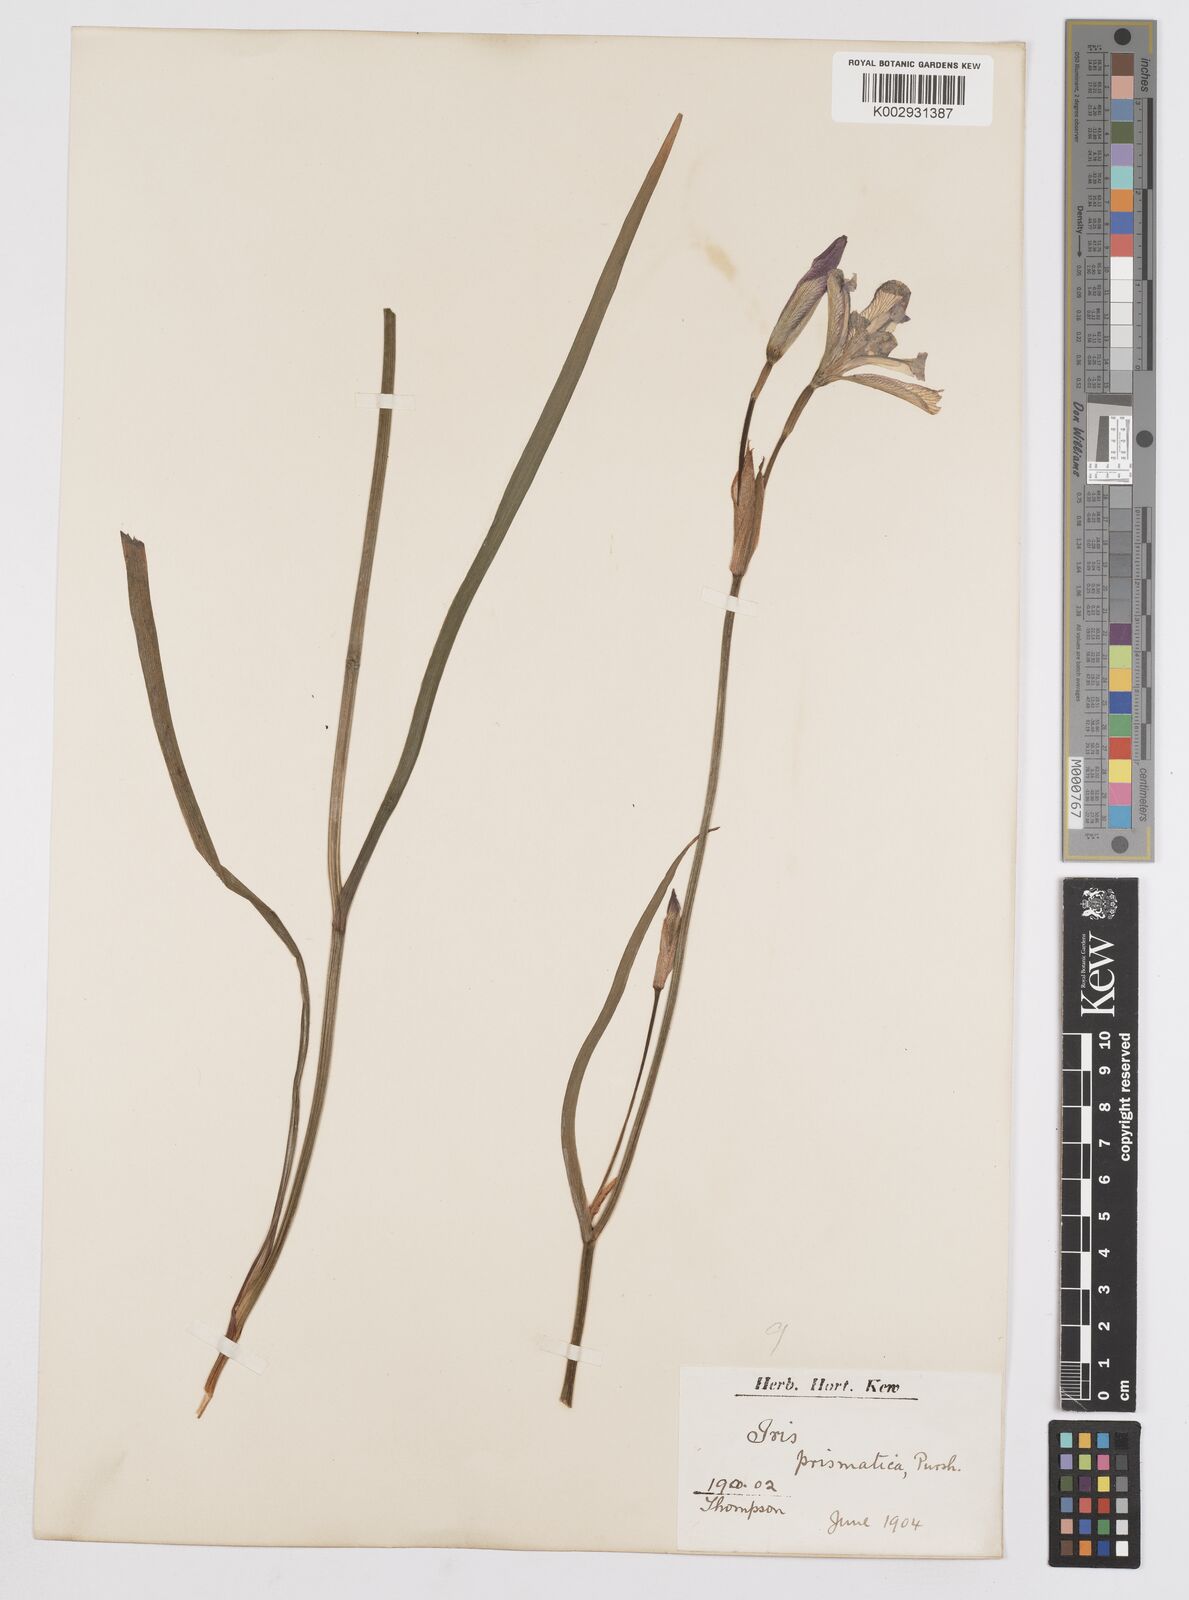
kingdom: Plantae
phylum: Tracheophyta
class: Liliopsida
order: Asparagales
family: Iridaceae
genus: Iris
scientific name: Iris prismatica
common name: Slender blue flag
